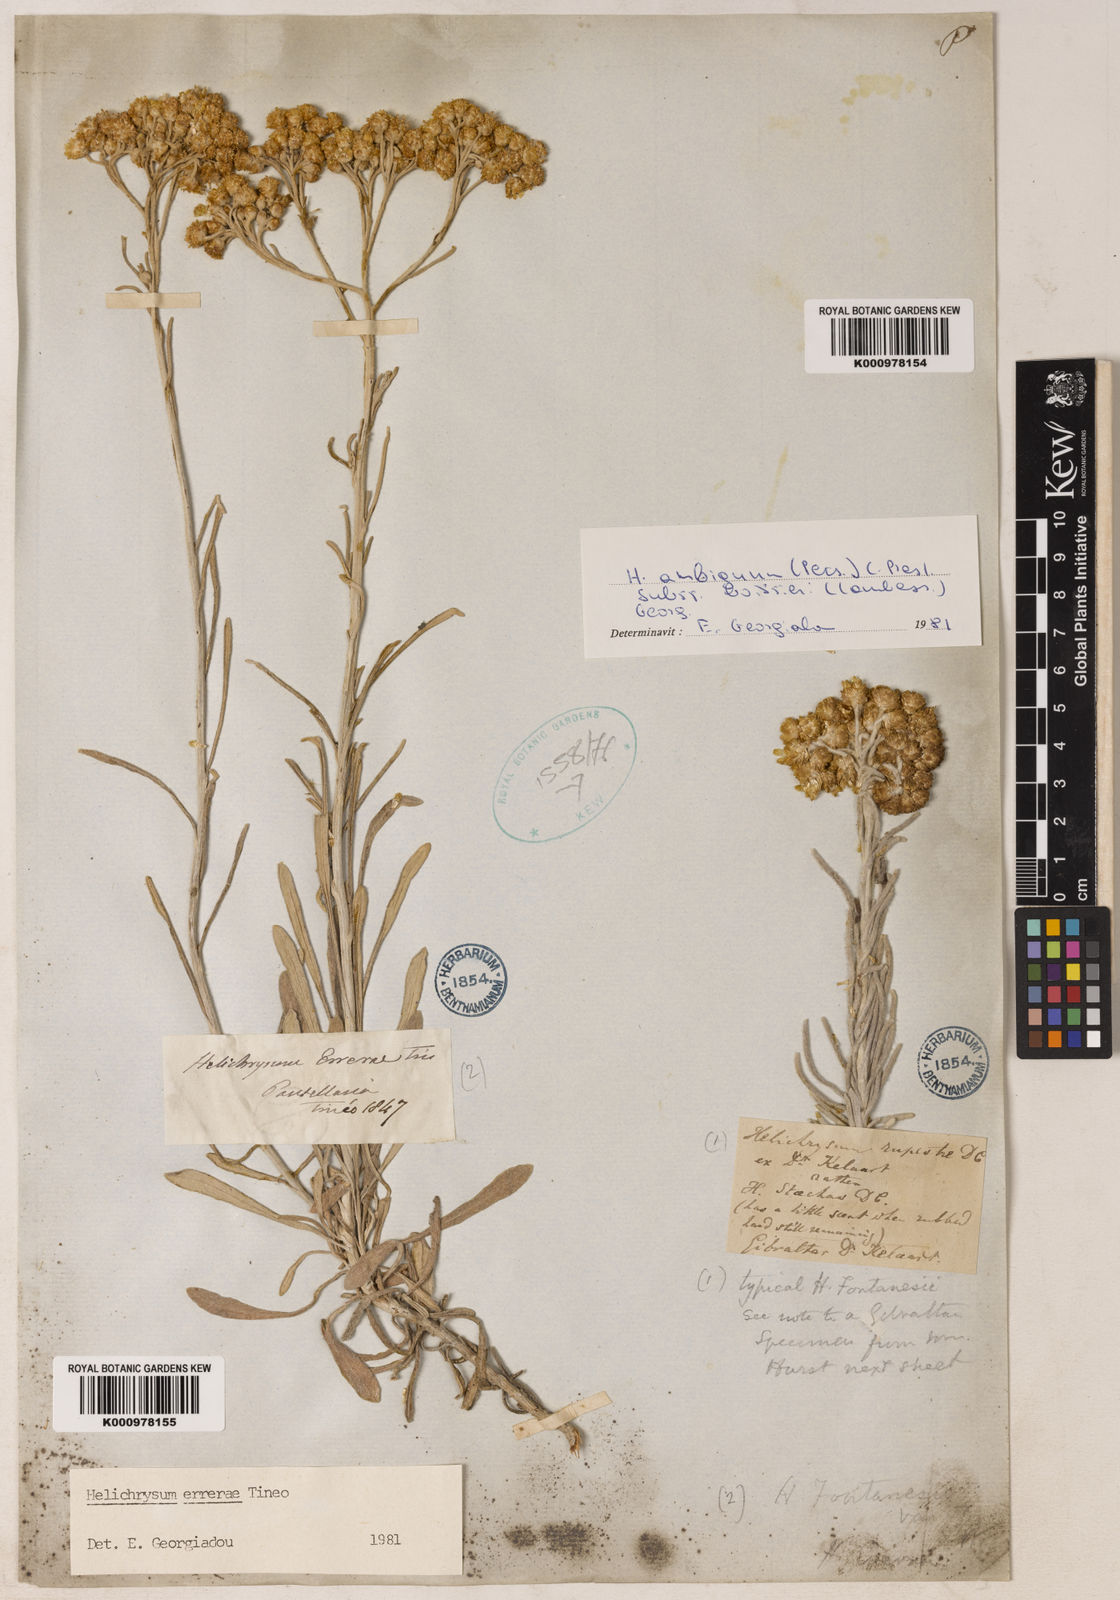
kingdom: Plantae
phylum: Tracheophyta
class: Magnoliopsida
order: Asterales
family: Asteraceae
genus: Helichrysum
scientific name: Helichrysum errerae
